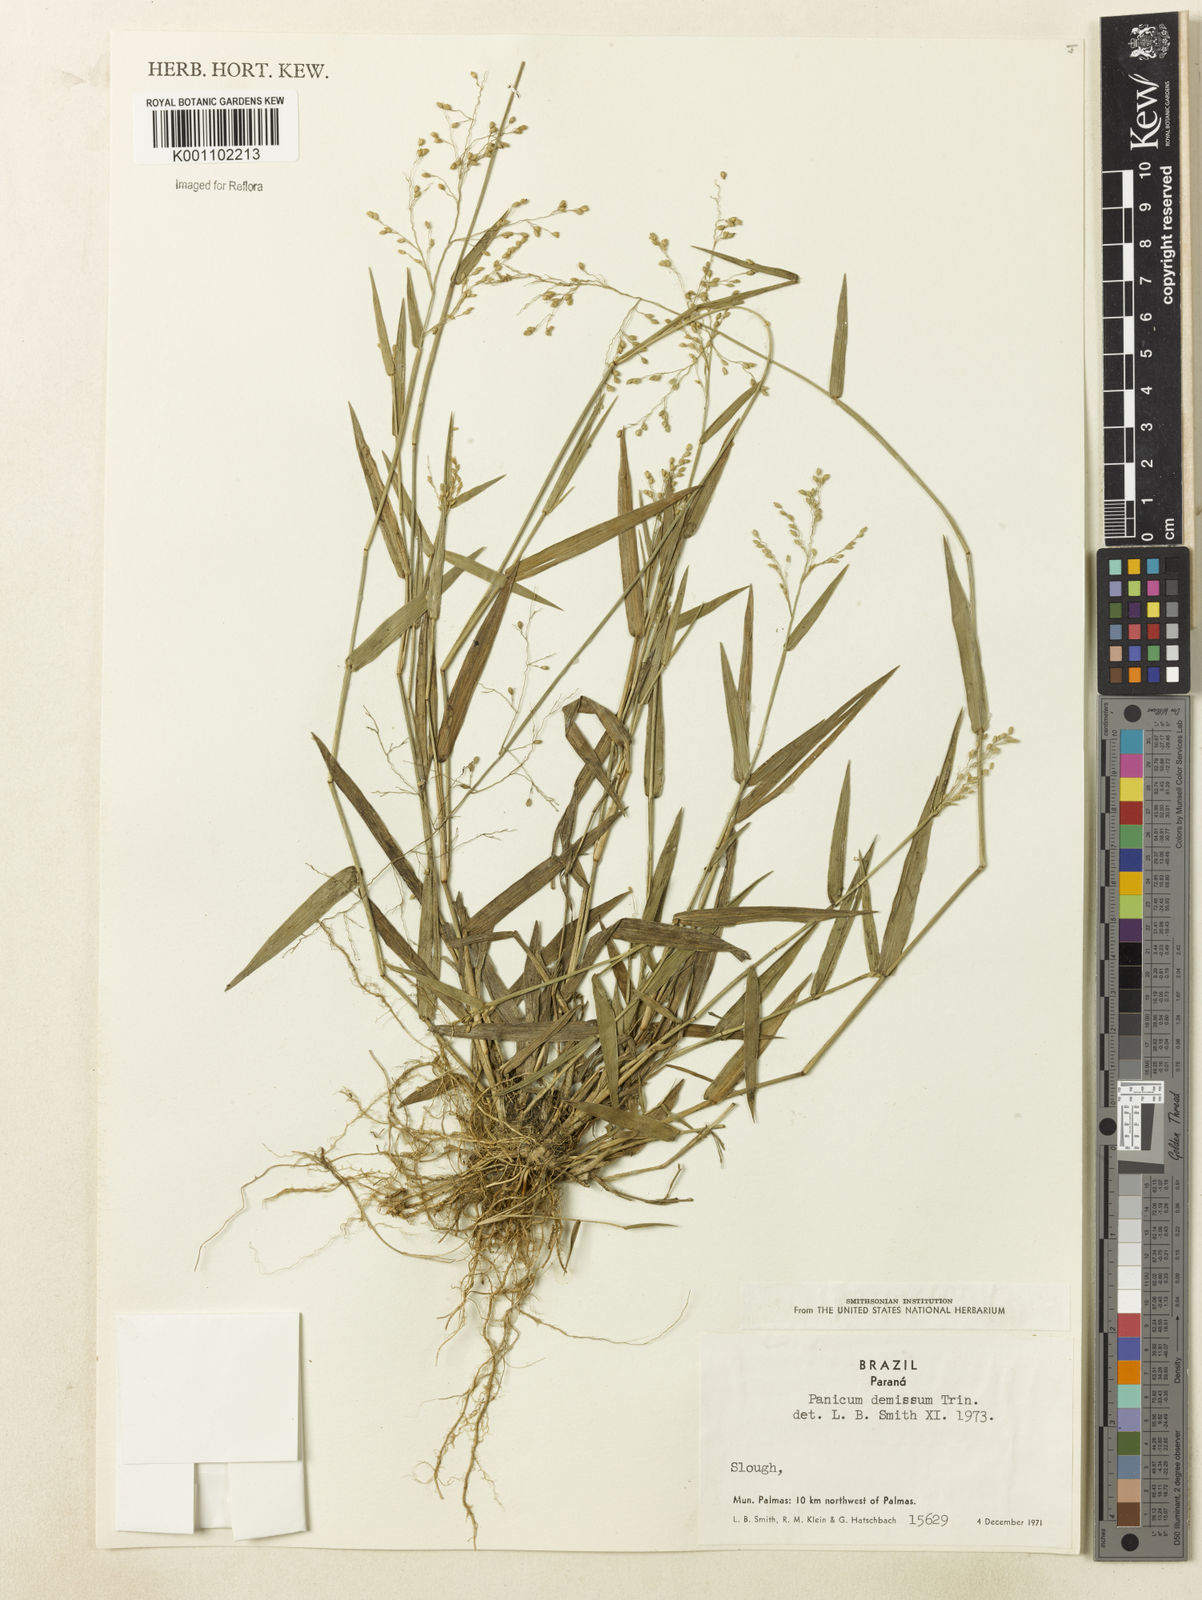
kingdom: Plantae
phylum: Tracheophyta
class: Liliopsida
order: Poales
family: Poaceae
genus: Dichanthelium
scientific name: Dichanthelium sabulorum
